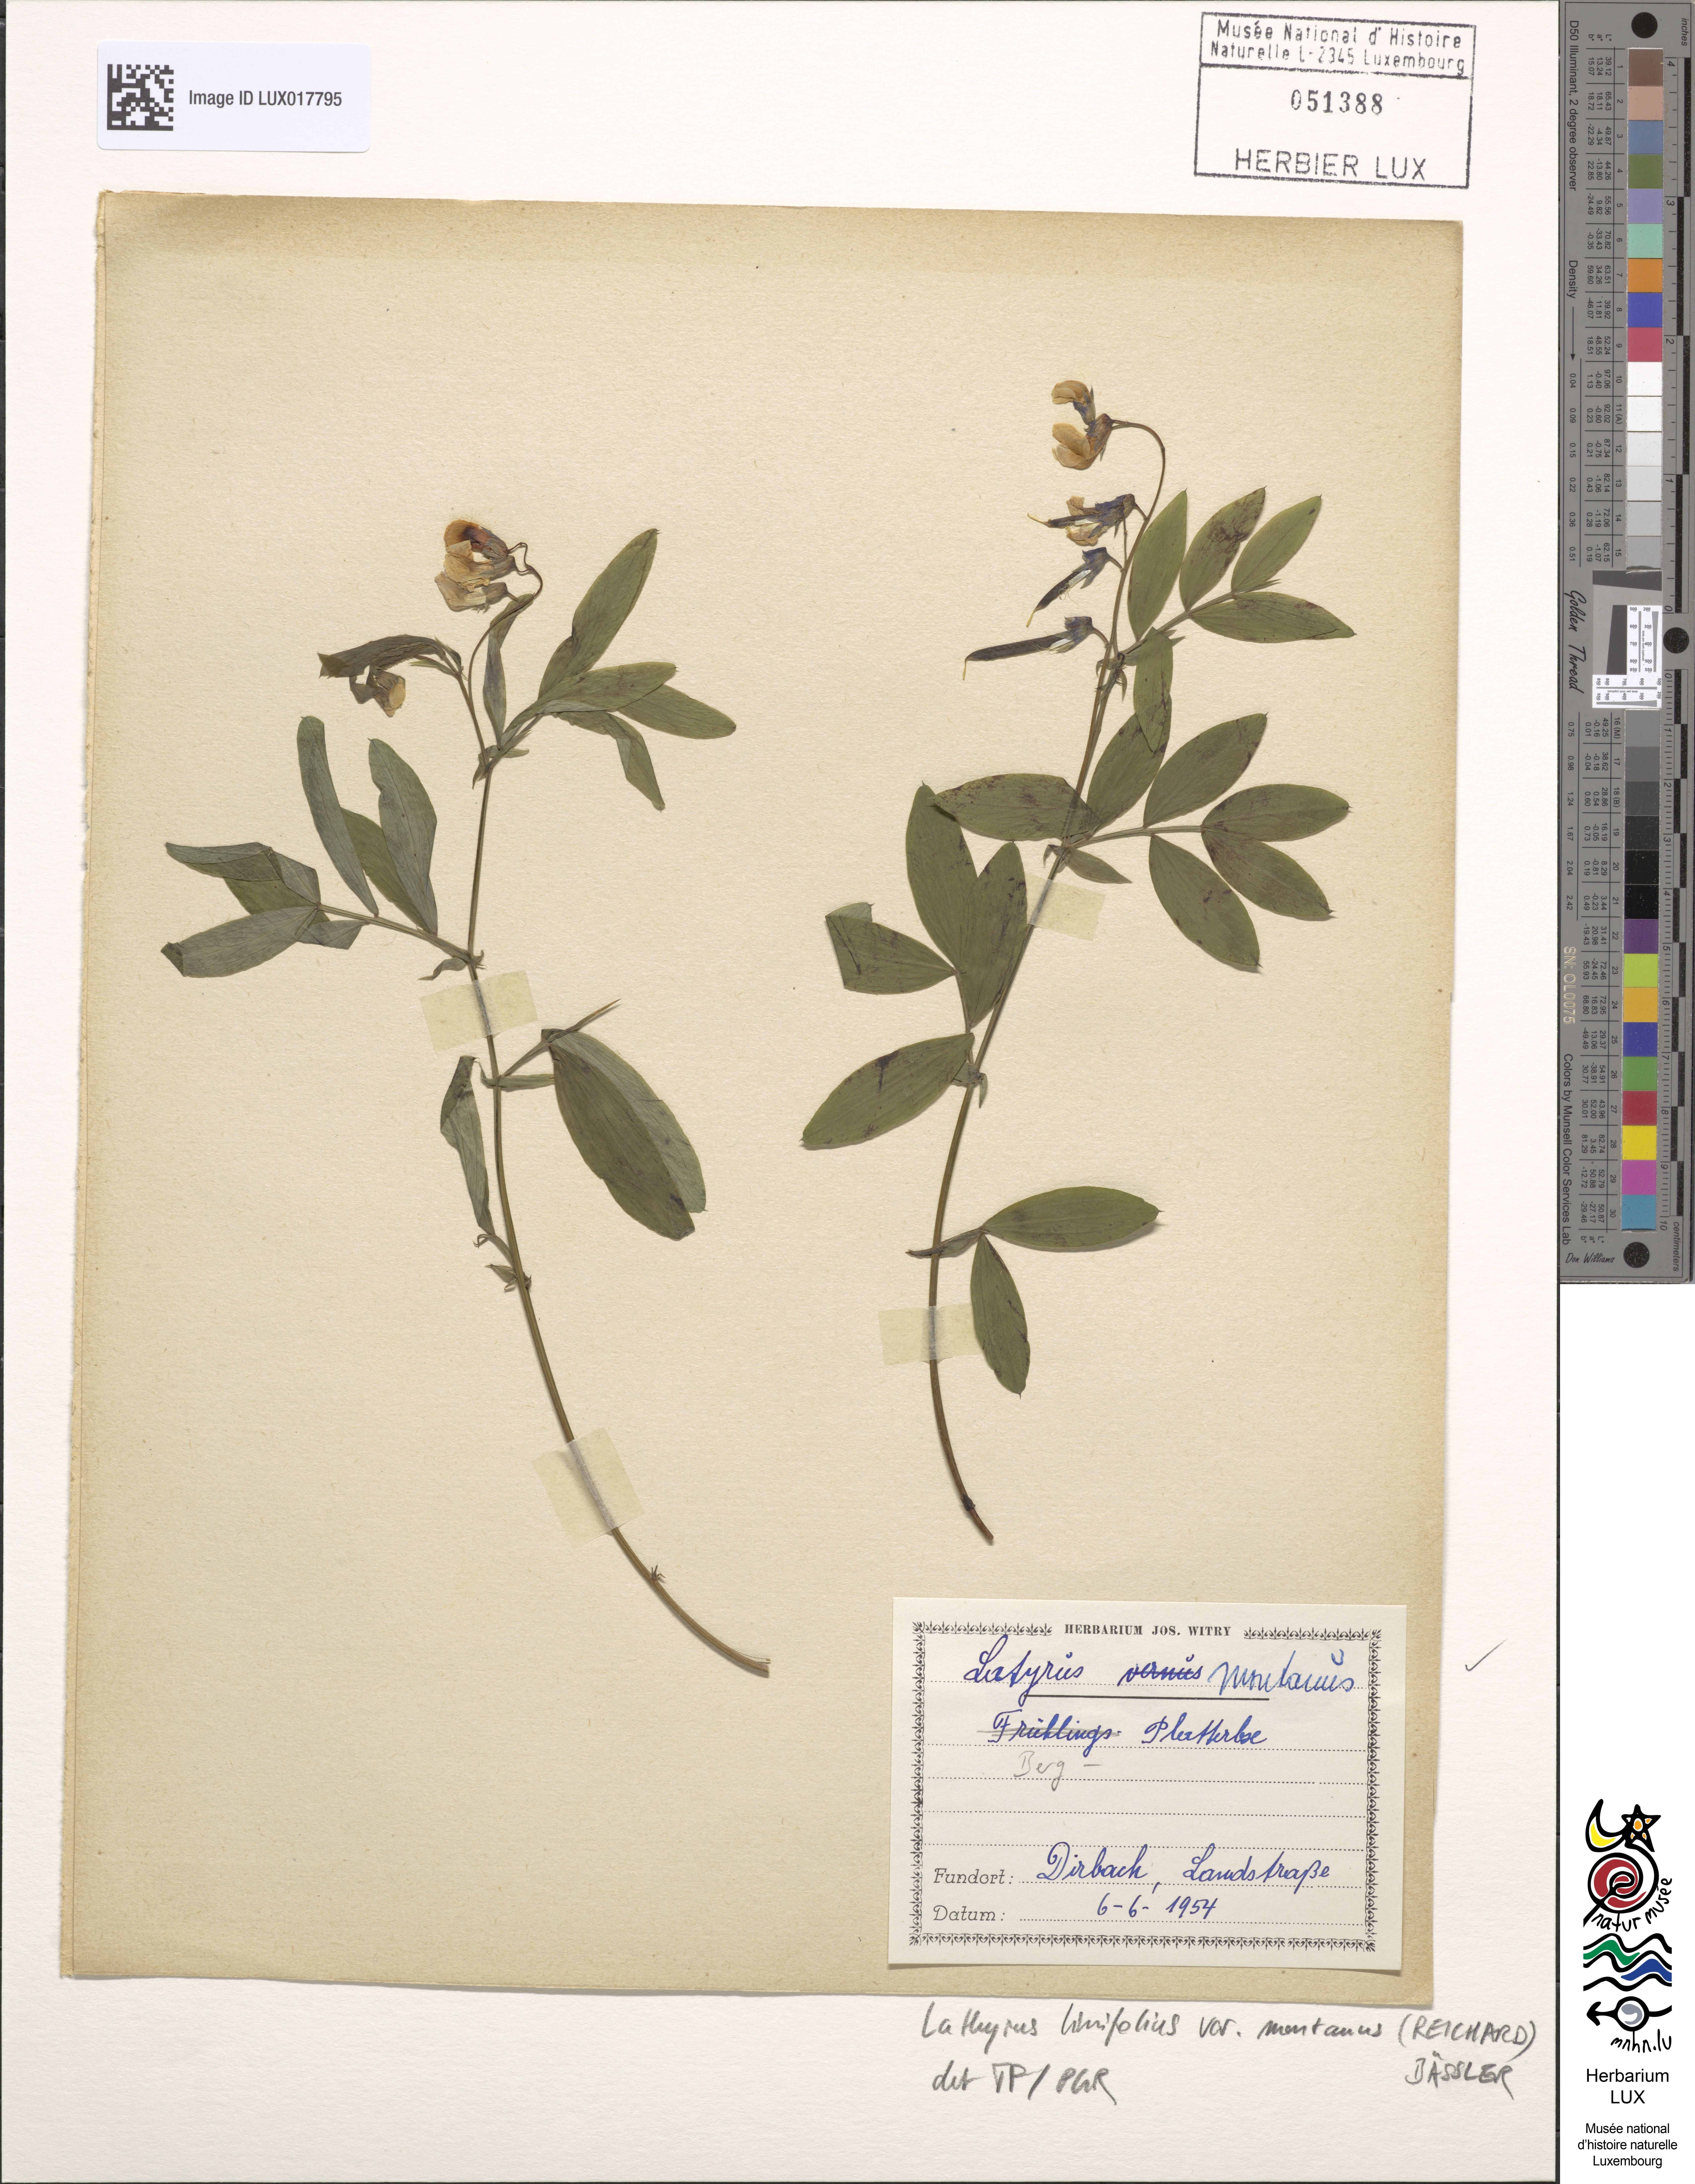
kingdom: Plantae
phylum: Tracheophyta
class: Magnoliopsida
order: Fabales
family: Fabaceae
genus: Lathyrus
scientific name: Lathyrus linifolius
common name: Bitter-vetch
